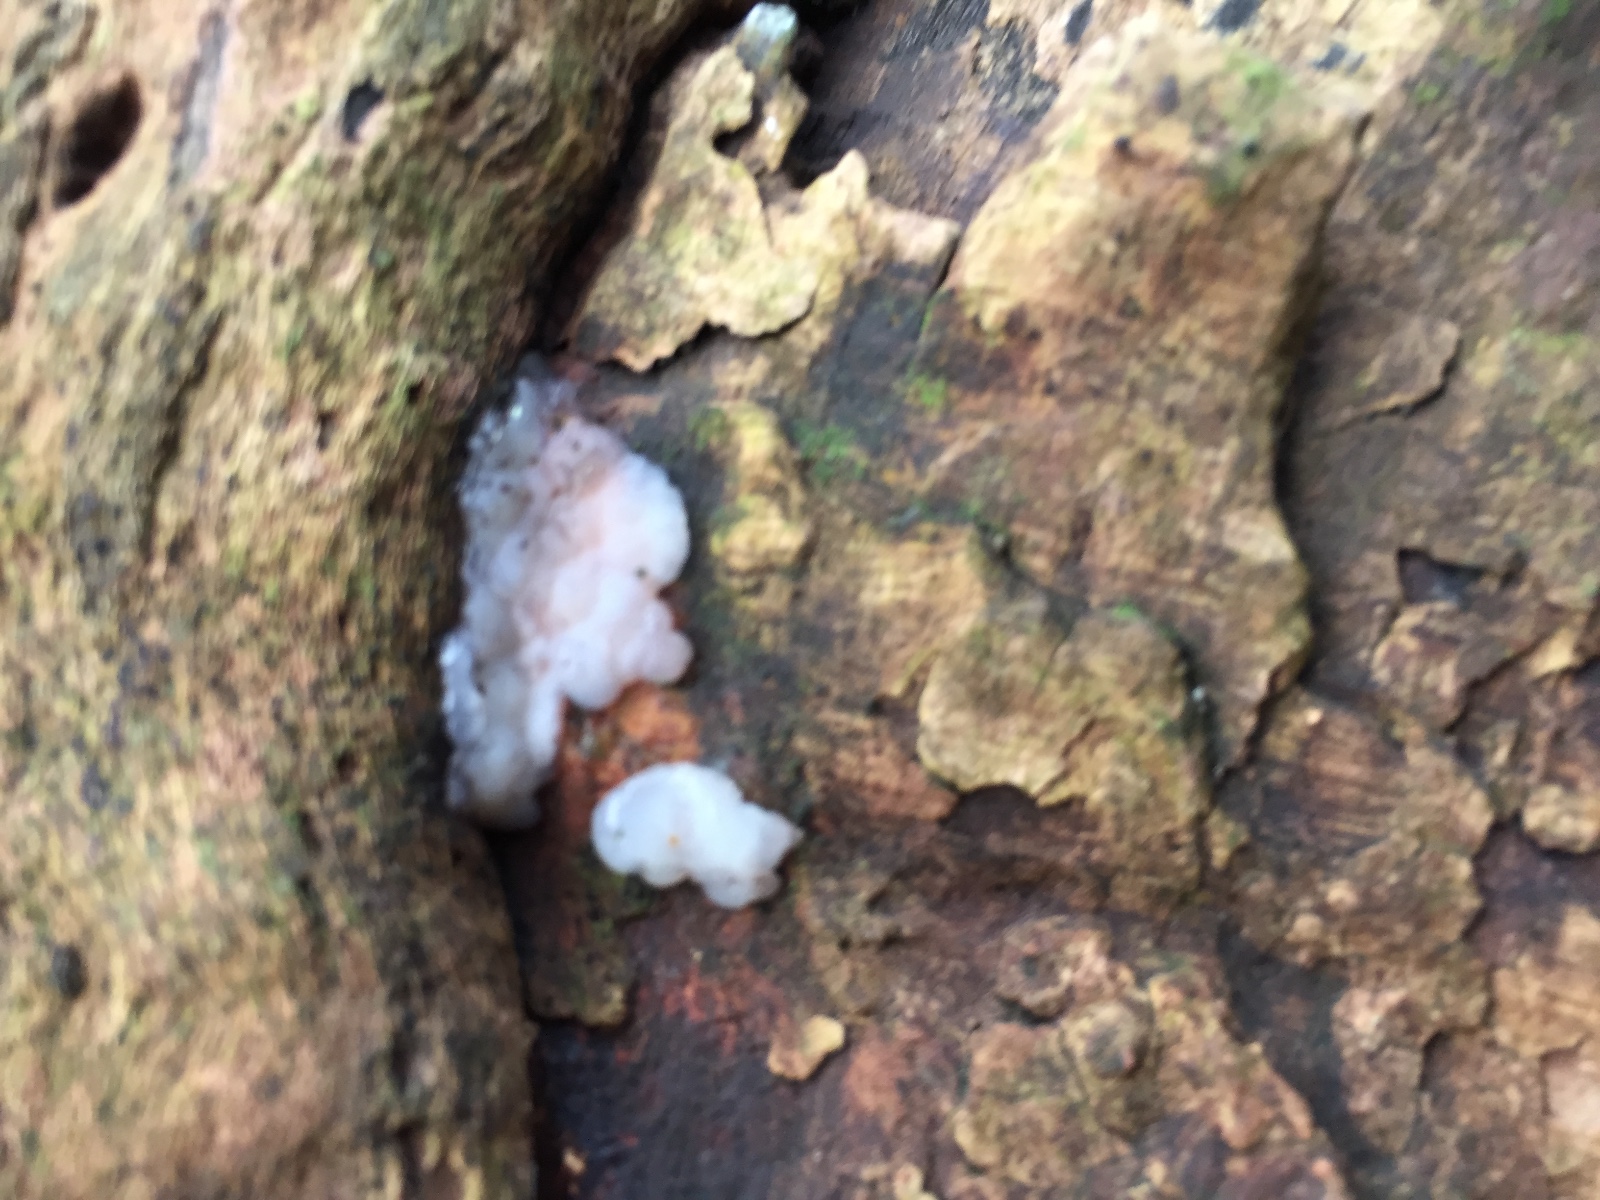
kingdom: Fungi
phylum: Basidiomycota
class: Agaricomycetes
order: Auriculariales
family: Auriculariaceae
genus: Exidia
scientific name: Exidia thuretiana
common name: hvidlig bævretop
